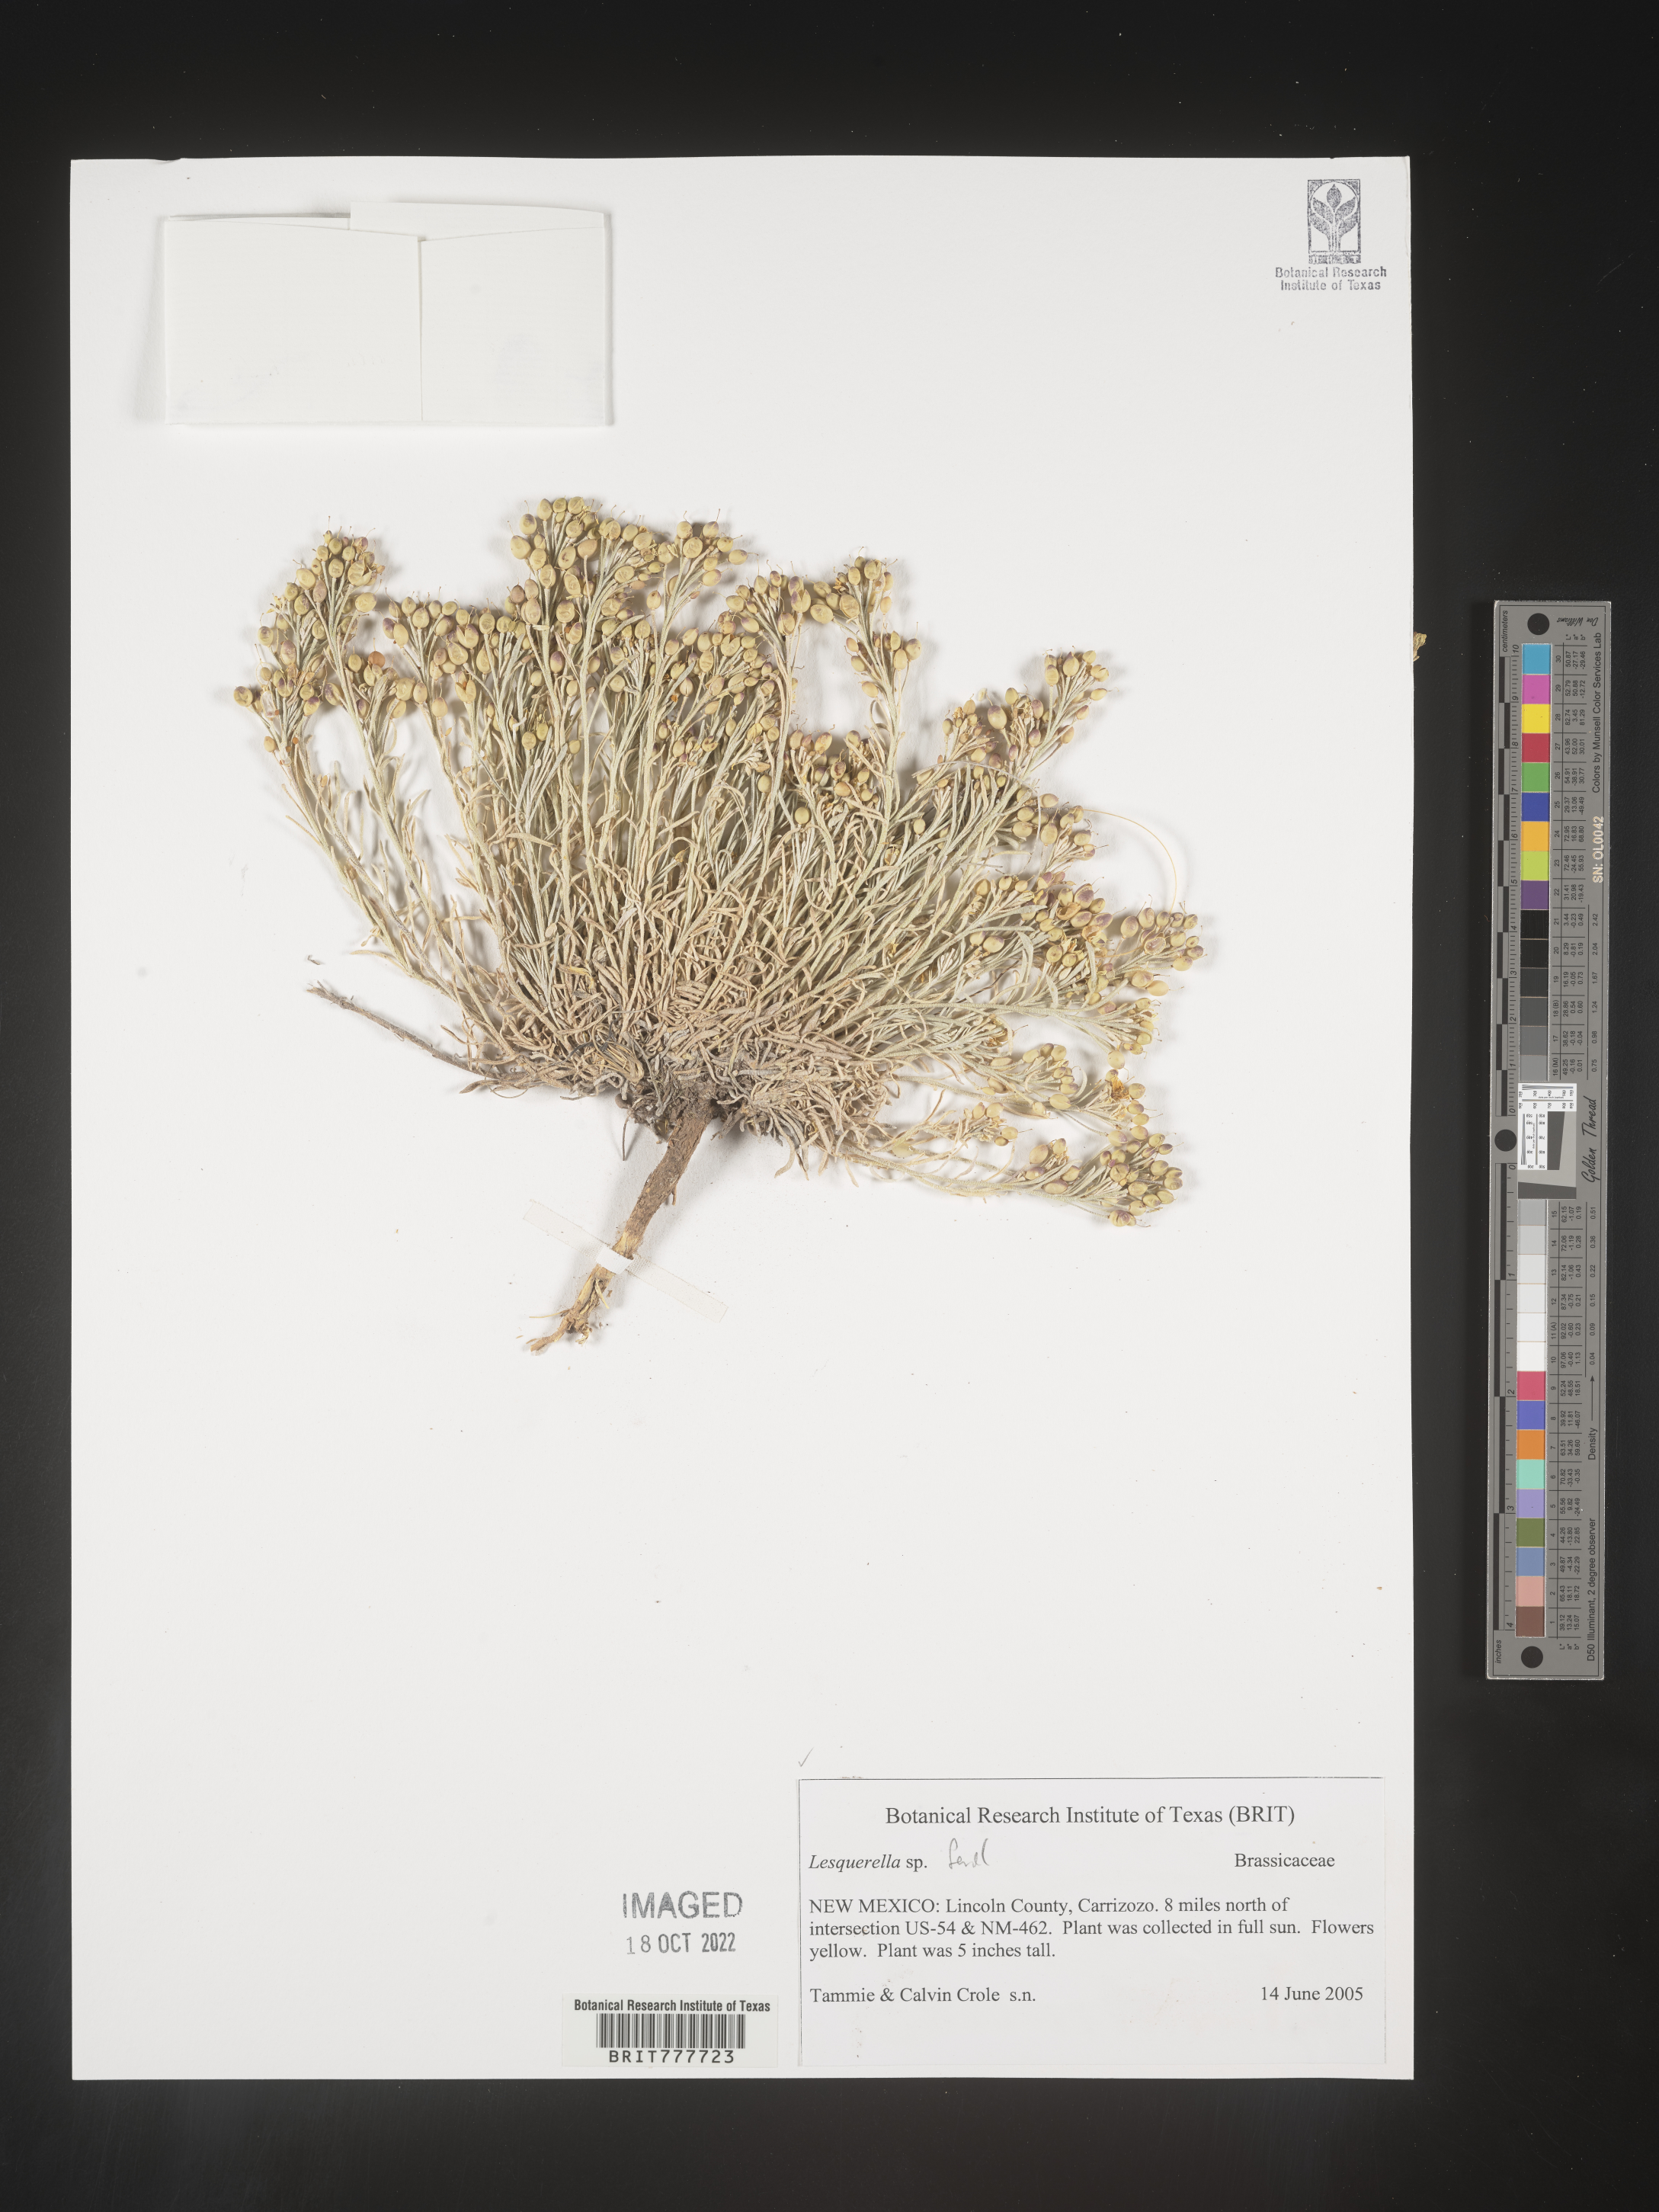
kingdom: Plantae
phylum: Tracheophyta
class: Magnoliopsida
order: Brassicales
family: Brassicaceae
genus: Physaria
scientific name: Physaria fendleri
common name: Fendler's bladderpod
